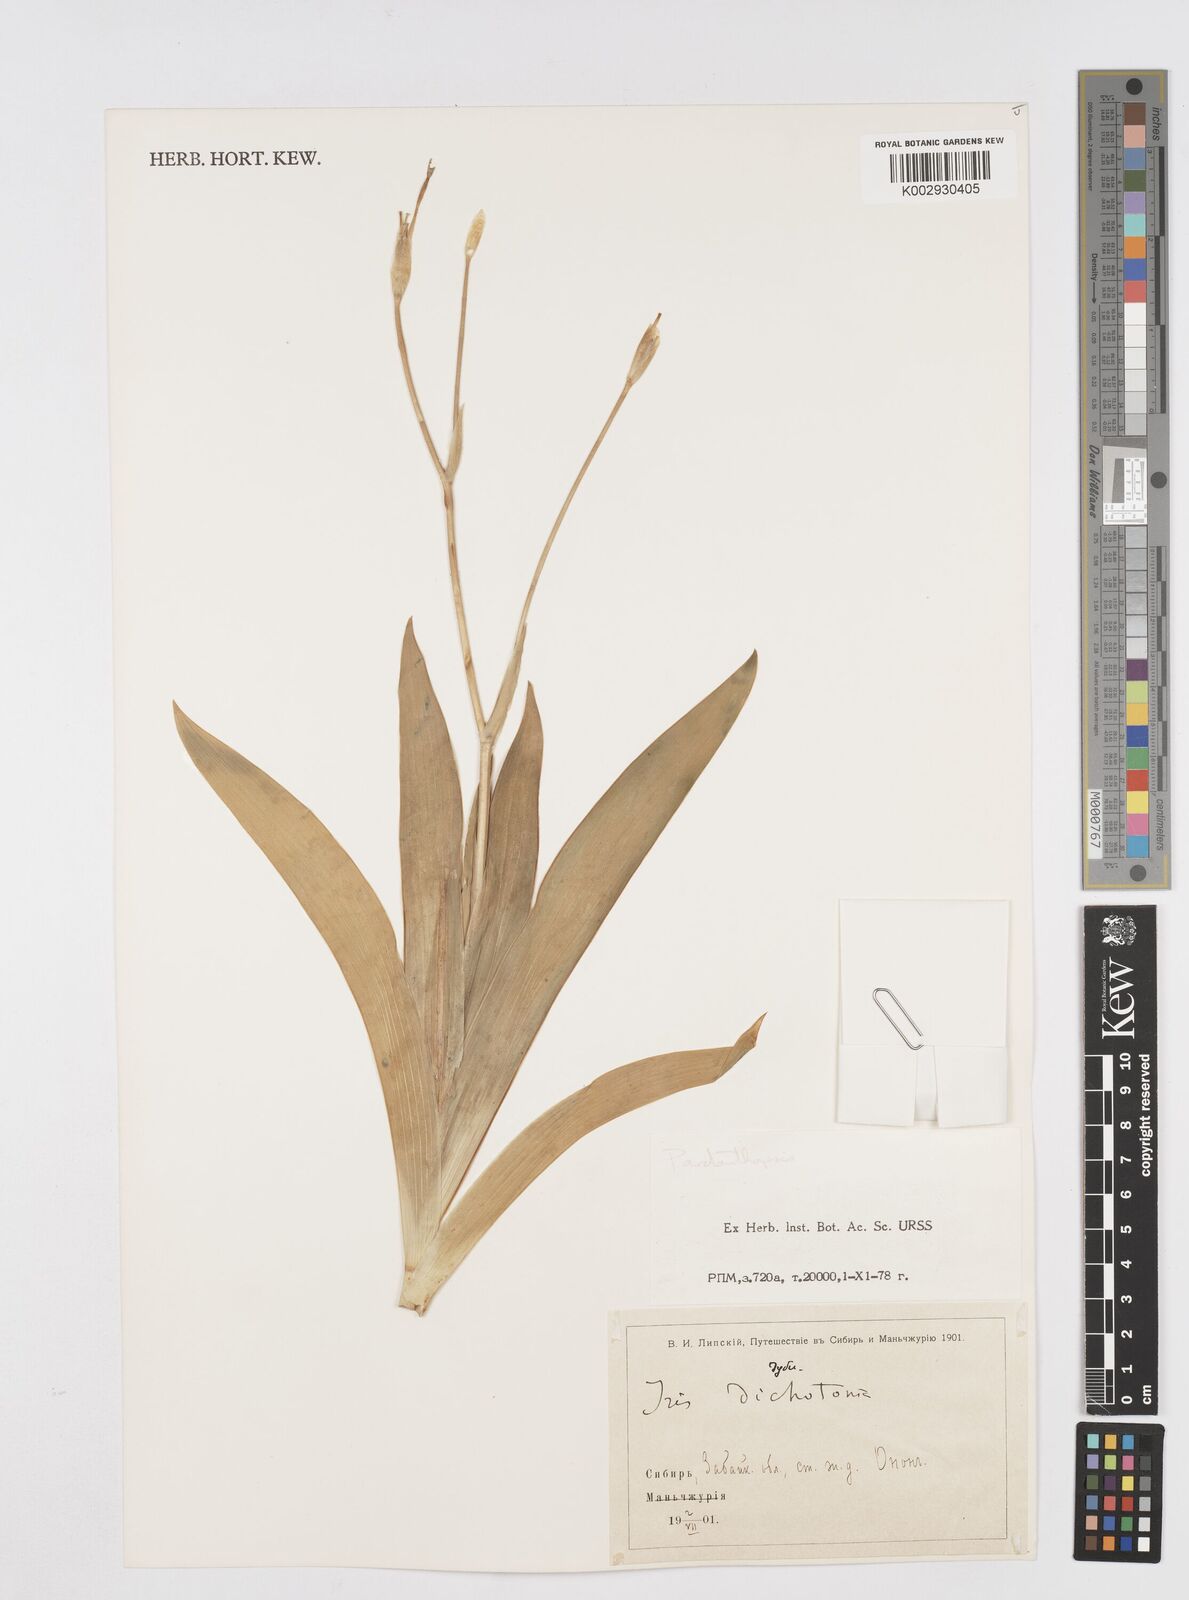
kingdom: Plantae
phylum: Tracheophyta
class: Liliopsida
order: Asparagales
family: Iridaceae
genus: Iris
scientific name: Iris dichotoma
